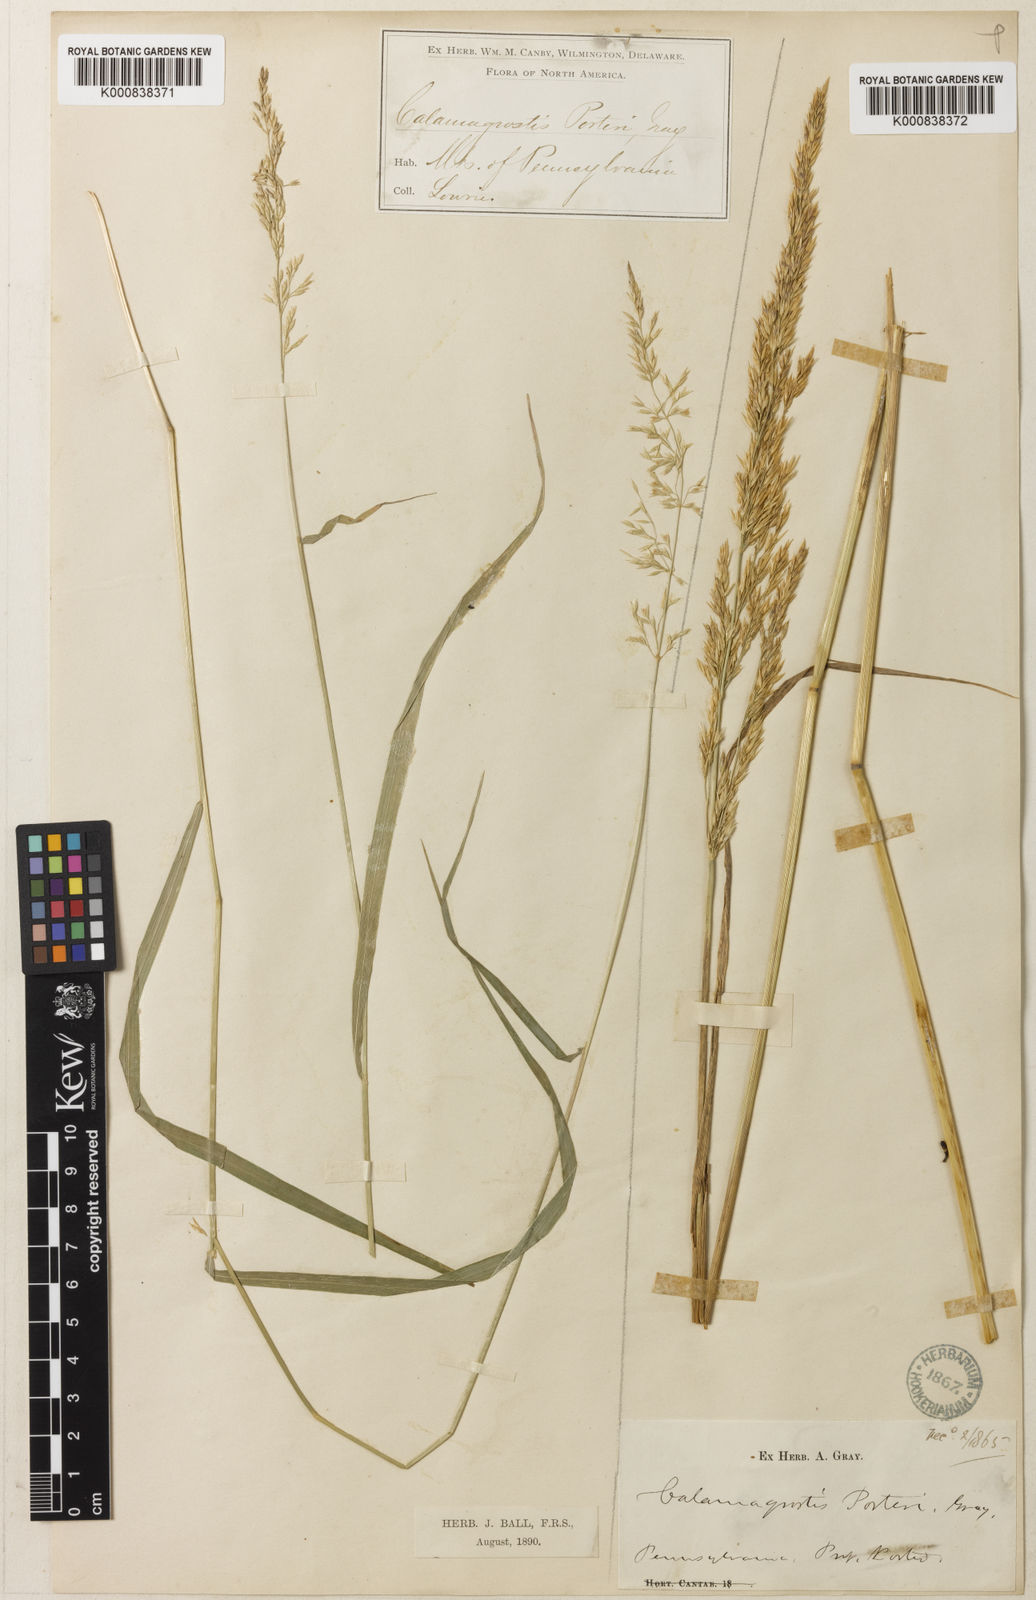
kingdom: Plantae
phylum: Tracheophyta
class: Liliopsida
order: Poales
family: Poaceae
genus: Calamagrostis
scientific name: Calamagrostis porteri
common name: Porter's reed grass
